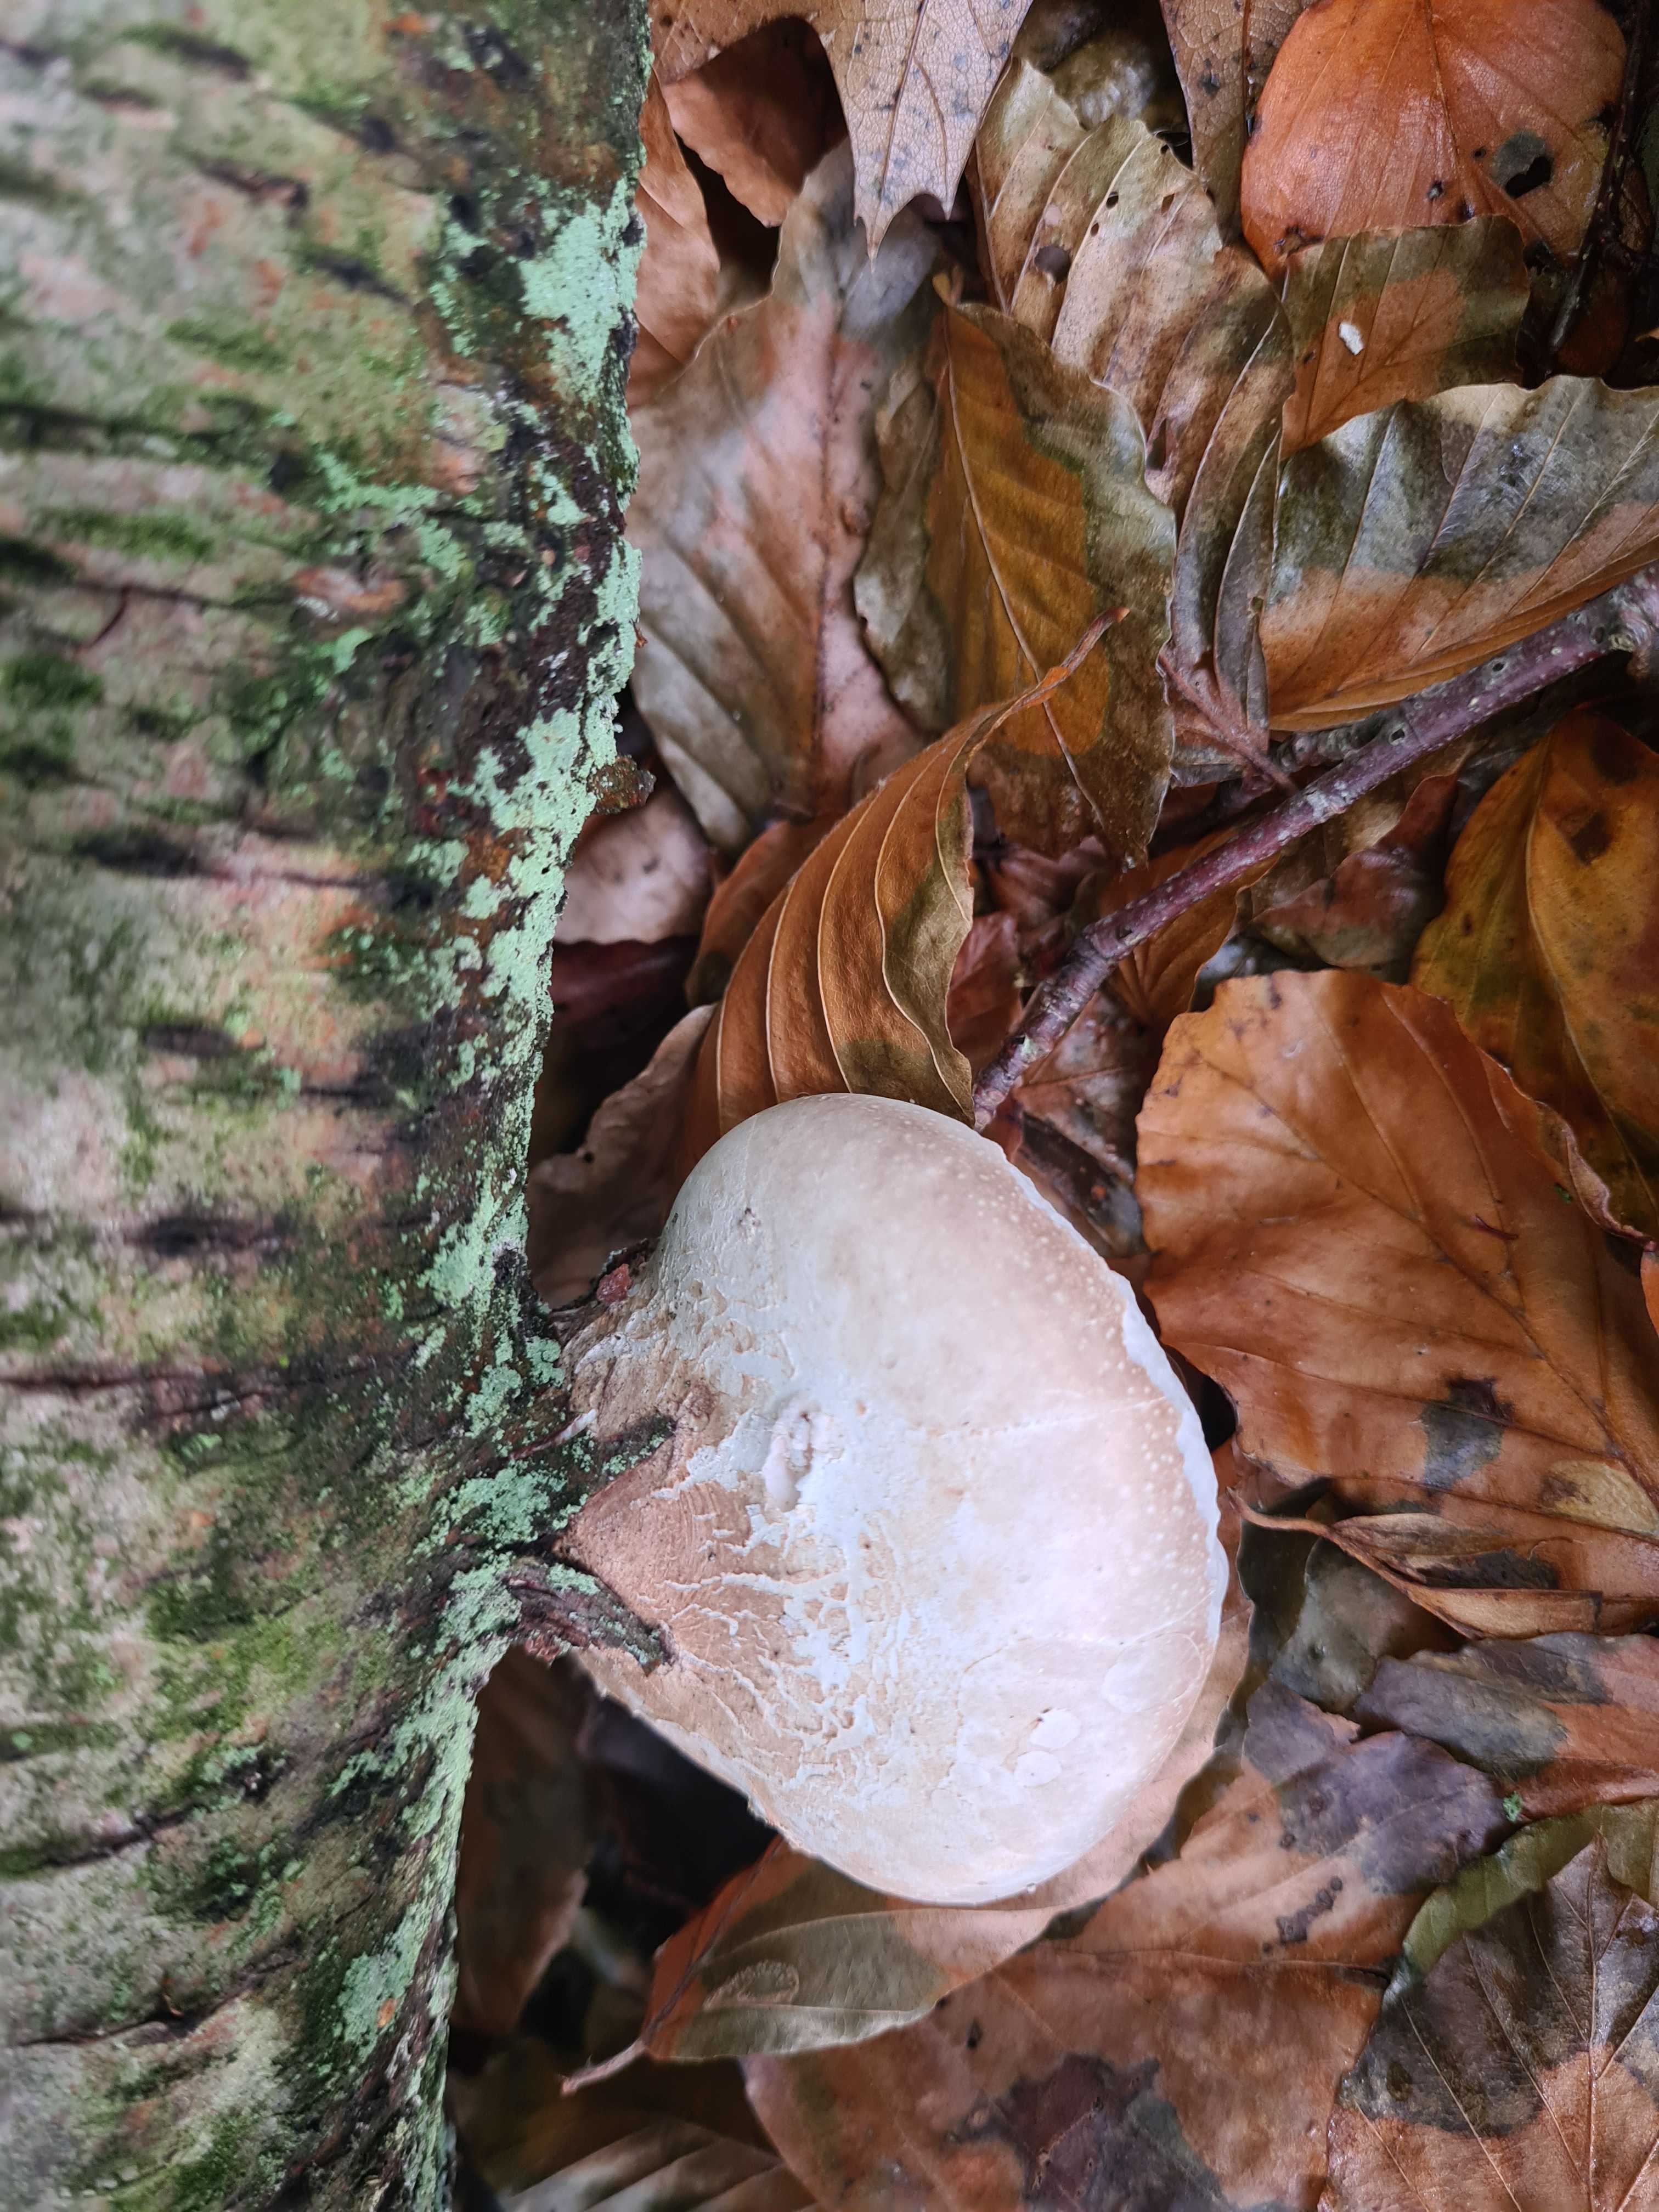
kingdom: Fungi
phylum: Basidiomycota
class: Agaricomycetes
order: Polyporales
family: Fomitopsidaceae
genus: Fomitopsis
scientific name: Fomitopsis betulina
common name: birkeporesvamp
